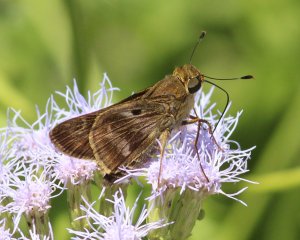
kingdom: Animalia
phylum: Arthropoda
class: Insecta
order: Lepidoptera
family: Hesperiidae
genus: Nyctelius
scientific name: Nyctelius nyctelius
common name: Violet-banded Skipper
